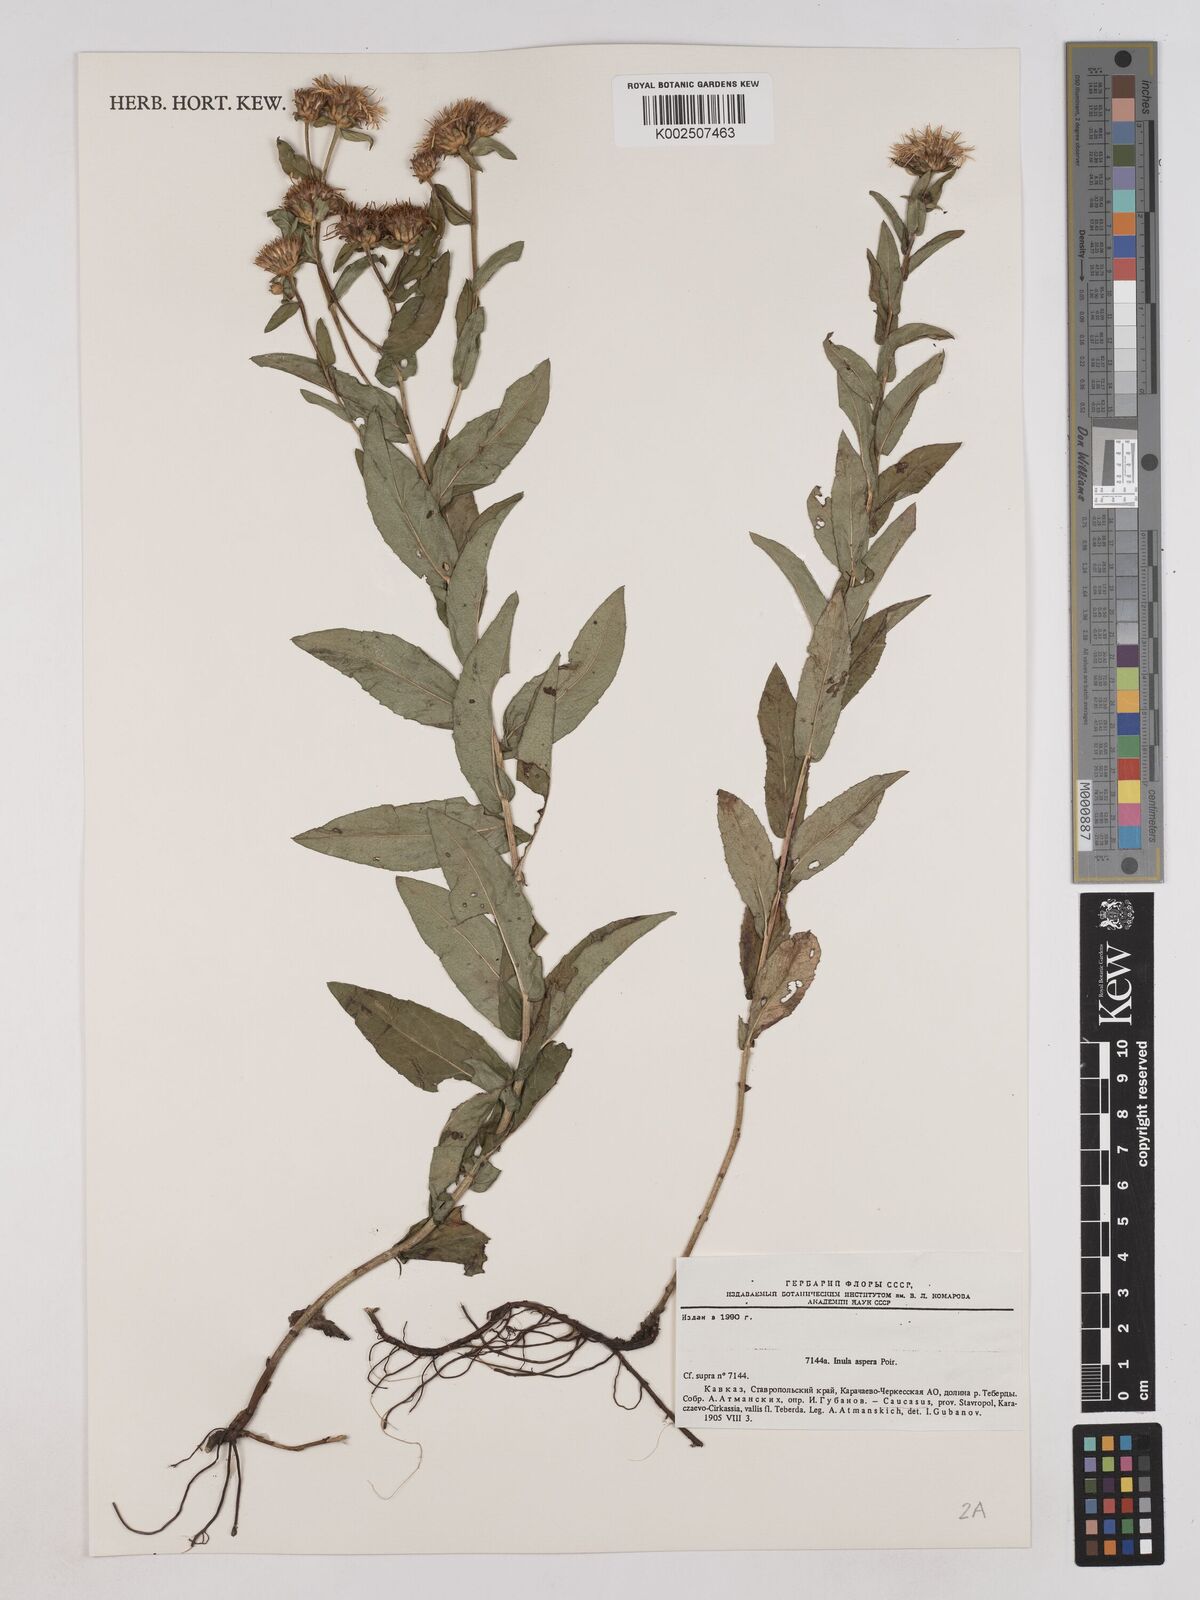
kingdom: Plantae
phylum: Tracheophyta
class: Magnoliopsida
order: Asterales
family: Asteraceae
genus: Pentanema
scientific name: Pentanema salicinum
